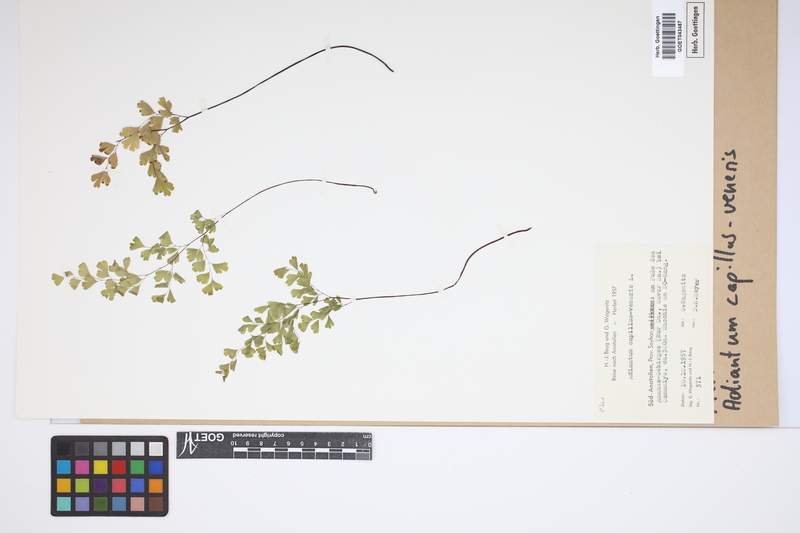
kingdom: Plantae
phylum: Tracheophyta
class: Polypodiopsida
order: Polypodiales
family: Pteridaceae
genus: Adiantum
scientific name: Adiantum capillus-veneris
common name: Maidenhair fern
